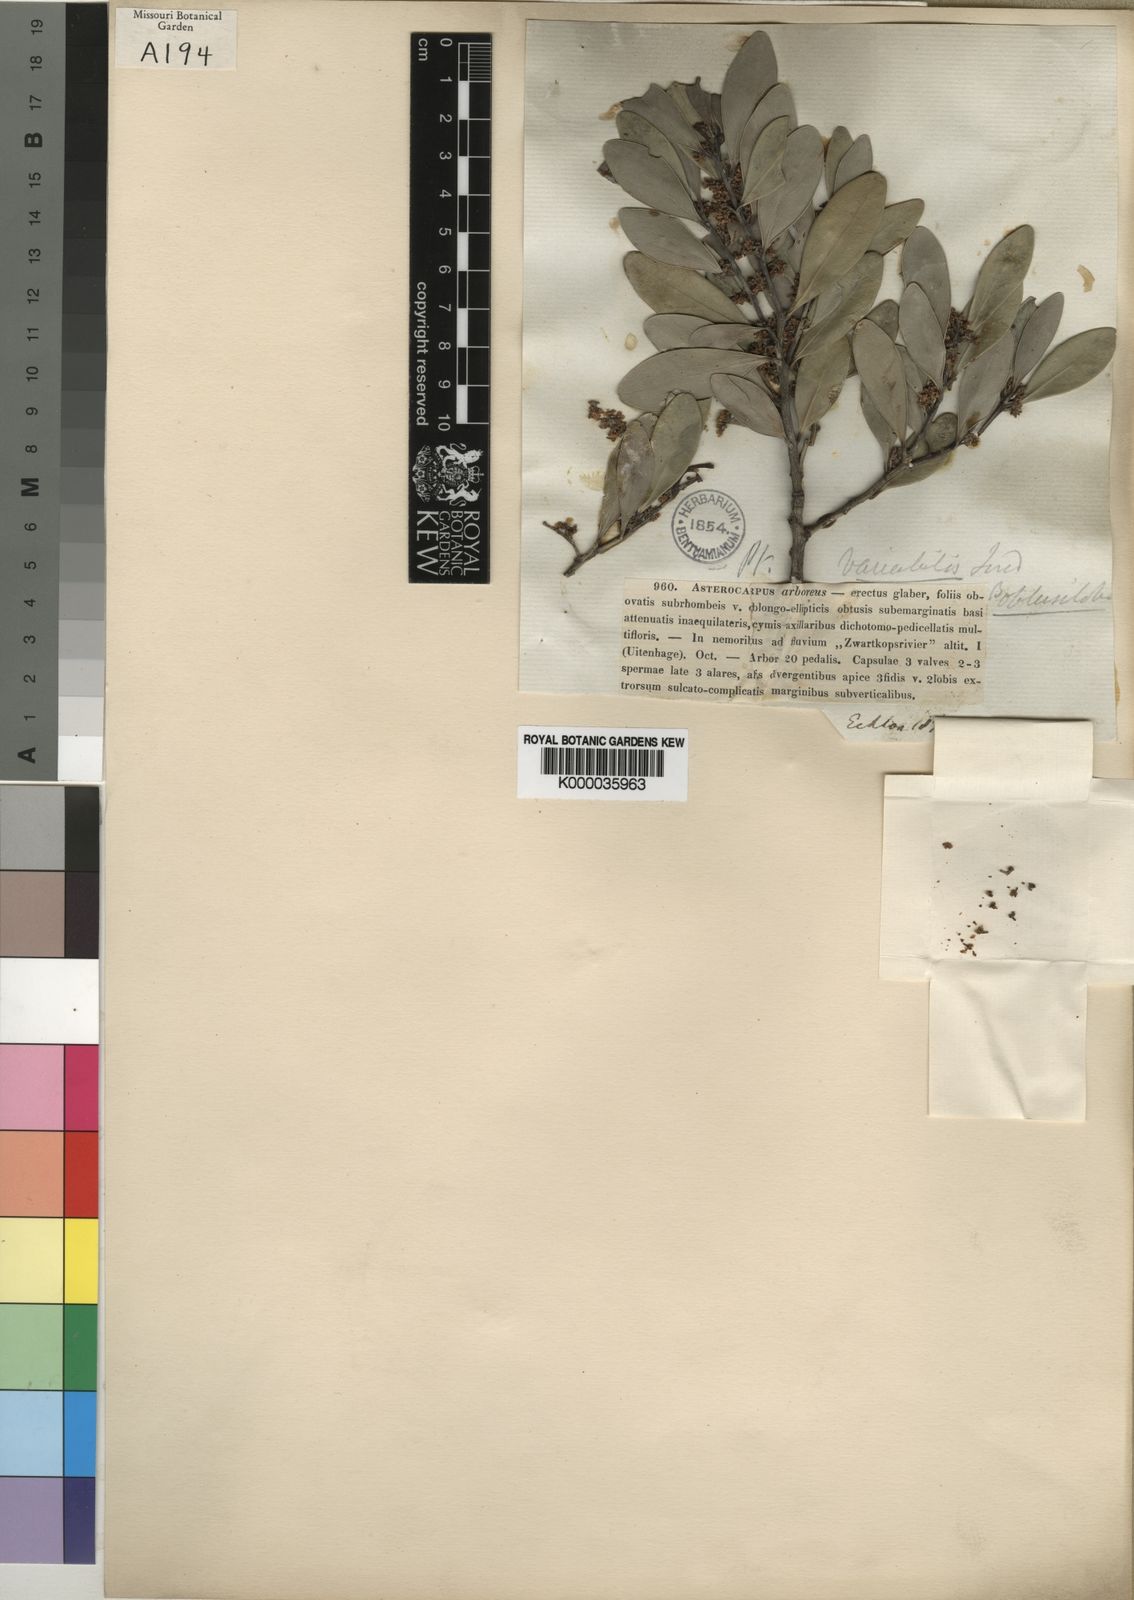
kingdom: Plantae
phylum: Tracheophyta
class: Magnoliopsida
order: Celastrales
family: Celastraceae
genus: Pterocelastrus
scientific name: Pterocelastrus tricuspidatus
